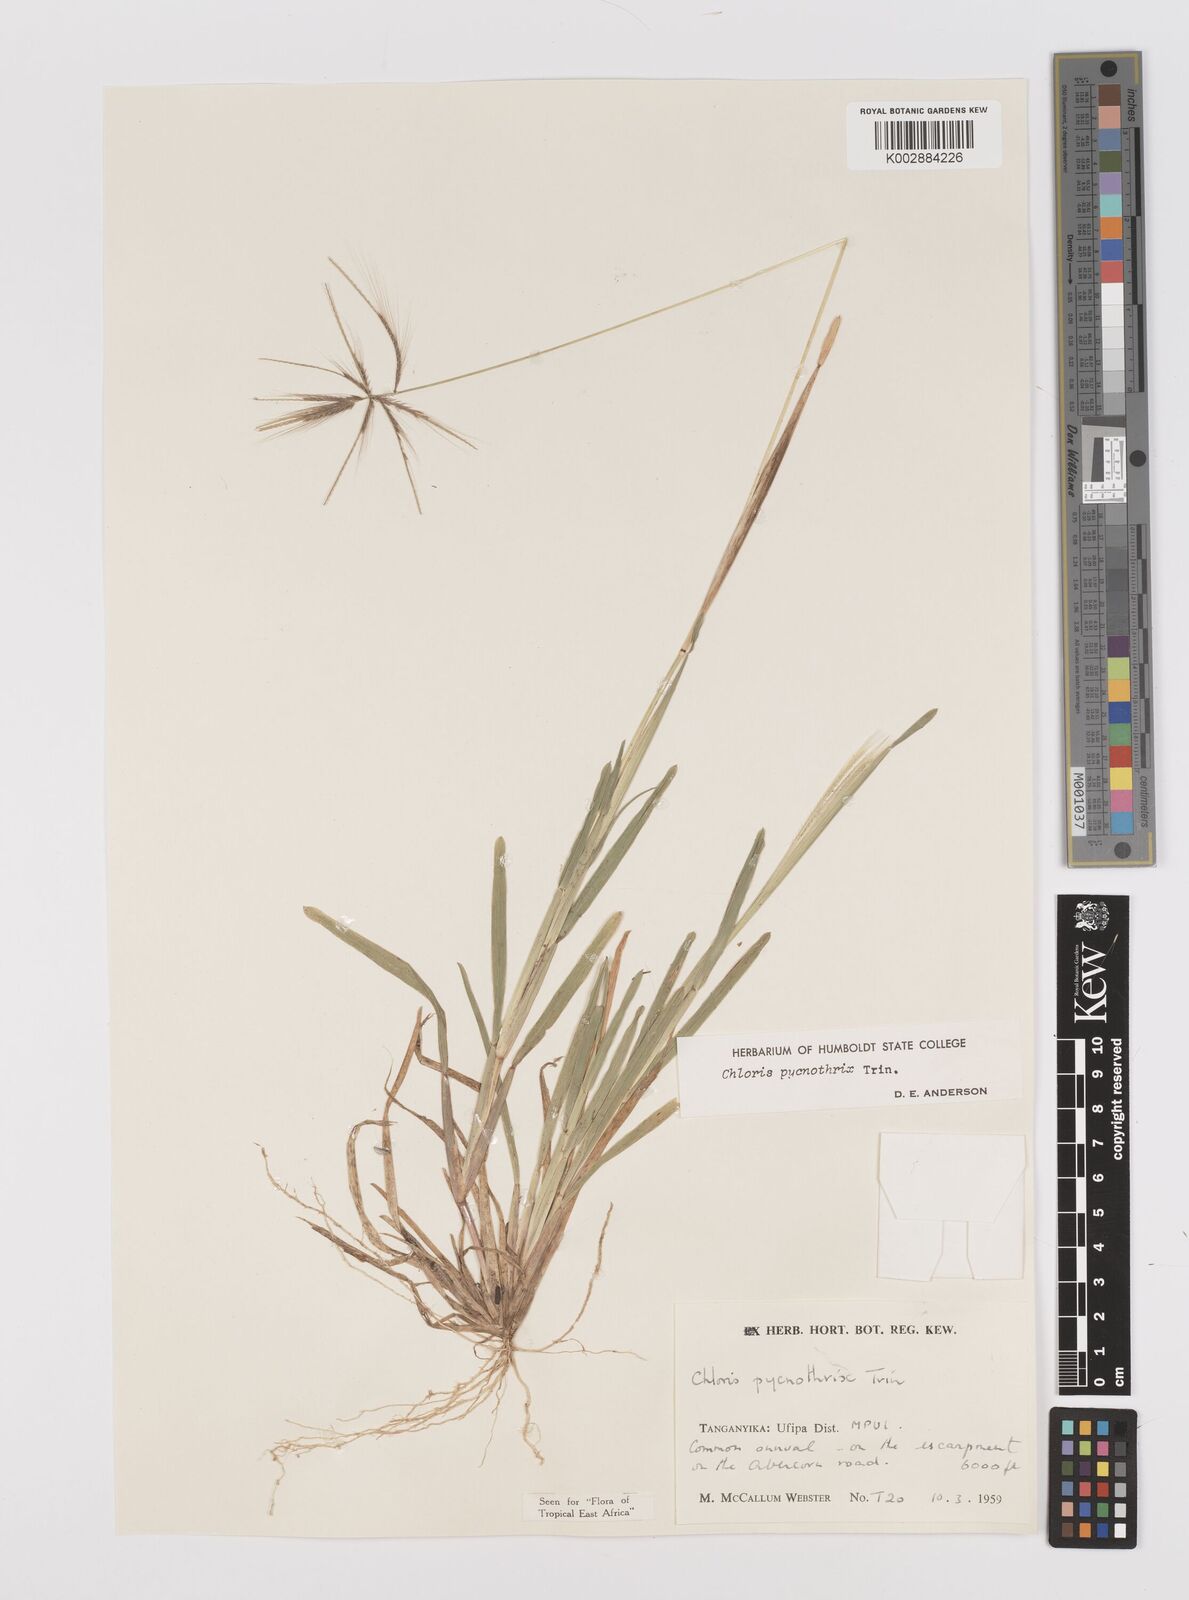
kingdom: Plantae
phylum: Tracheophyta
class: Liliopsida
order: Poales
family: Poaceae
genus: Chloris
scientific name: Chloris pycnothrix
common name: Spiderweb chloris
